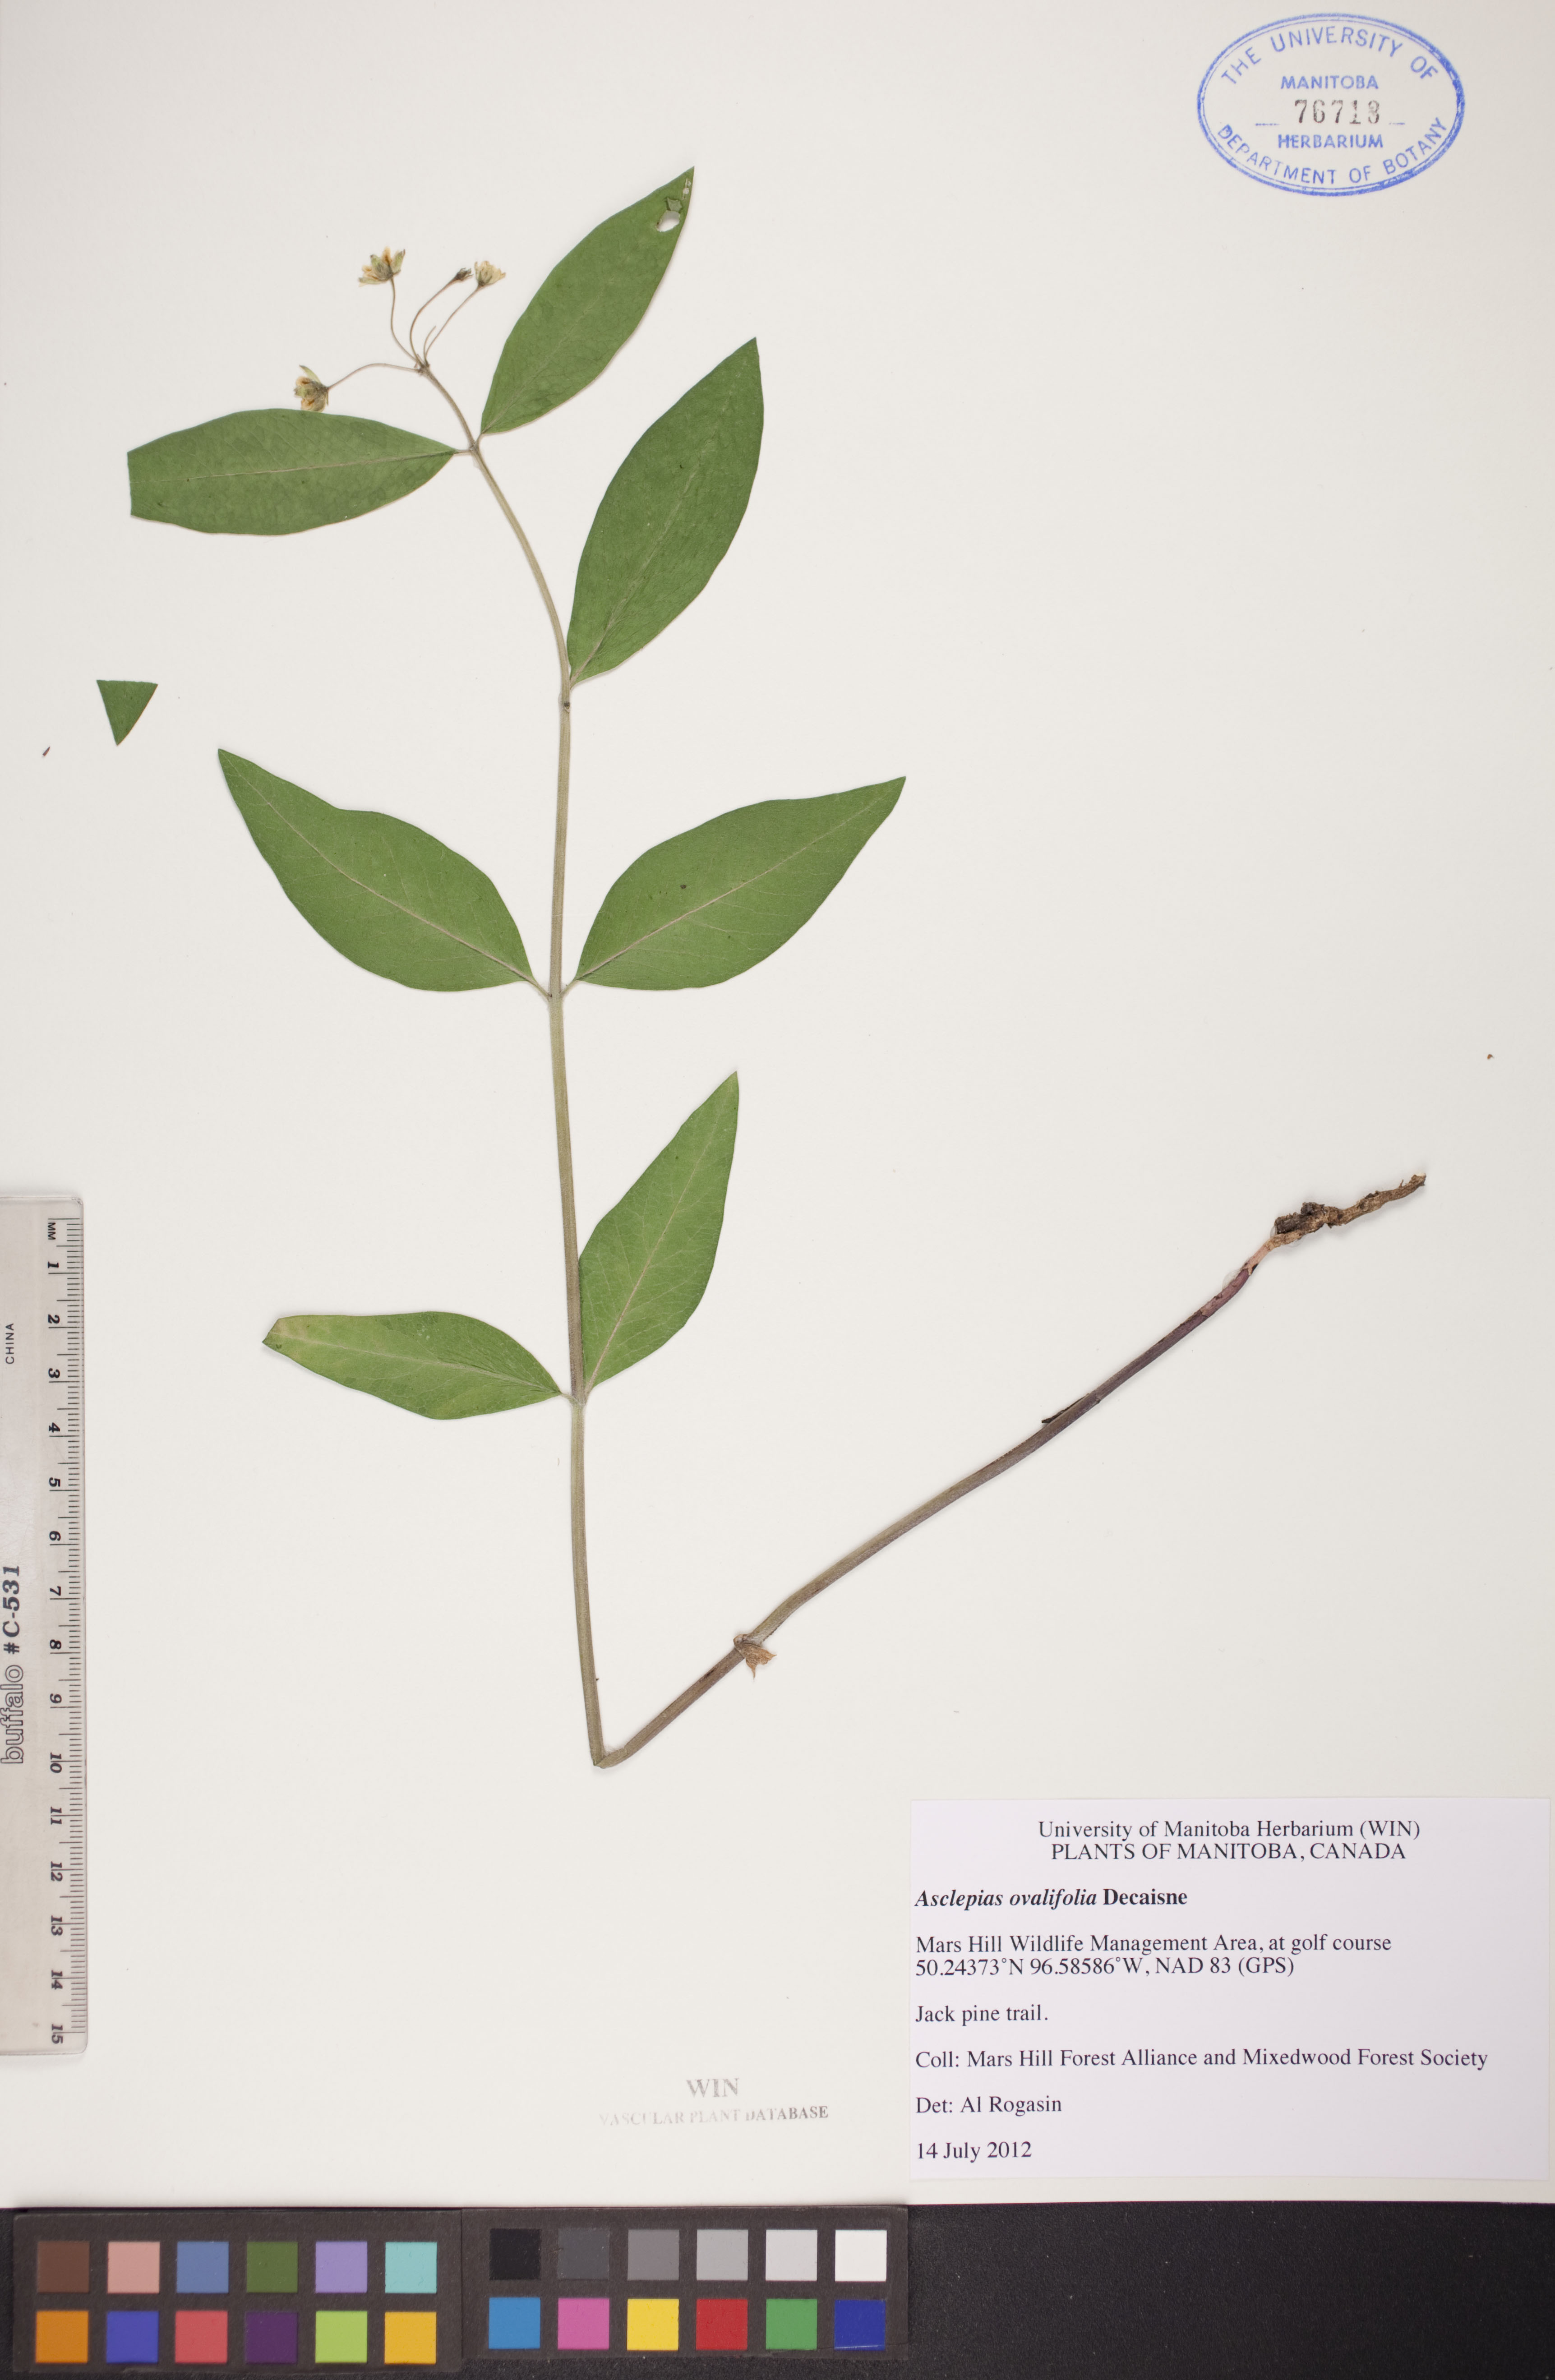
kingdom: Plantae
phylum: Tracheophyta
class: Magnoliopsida
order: Gentianales
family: Apocynaceae
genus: Asclepias
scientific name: Asclepias ovalifolia
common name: Dwarf milkweed
